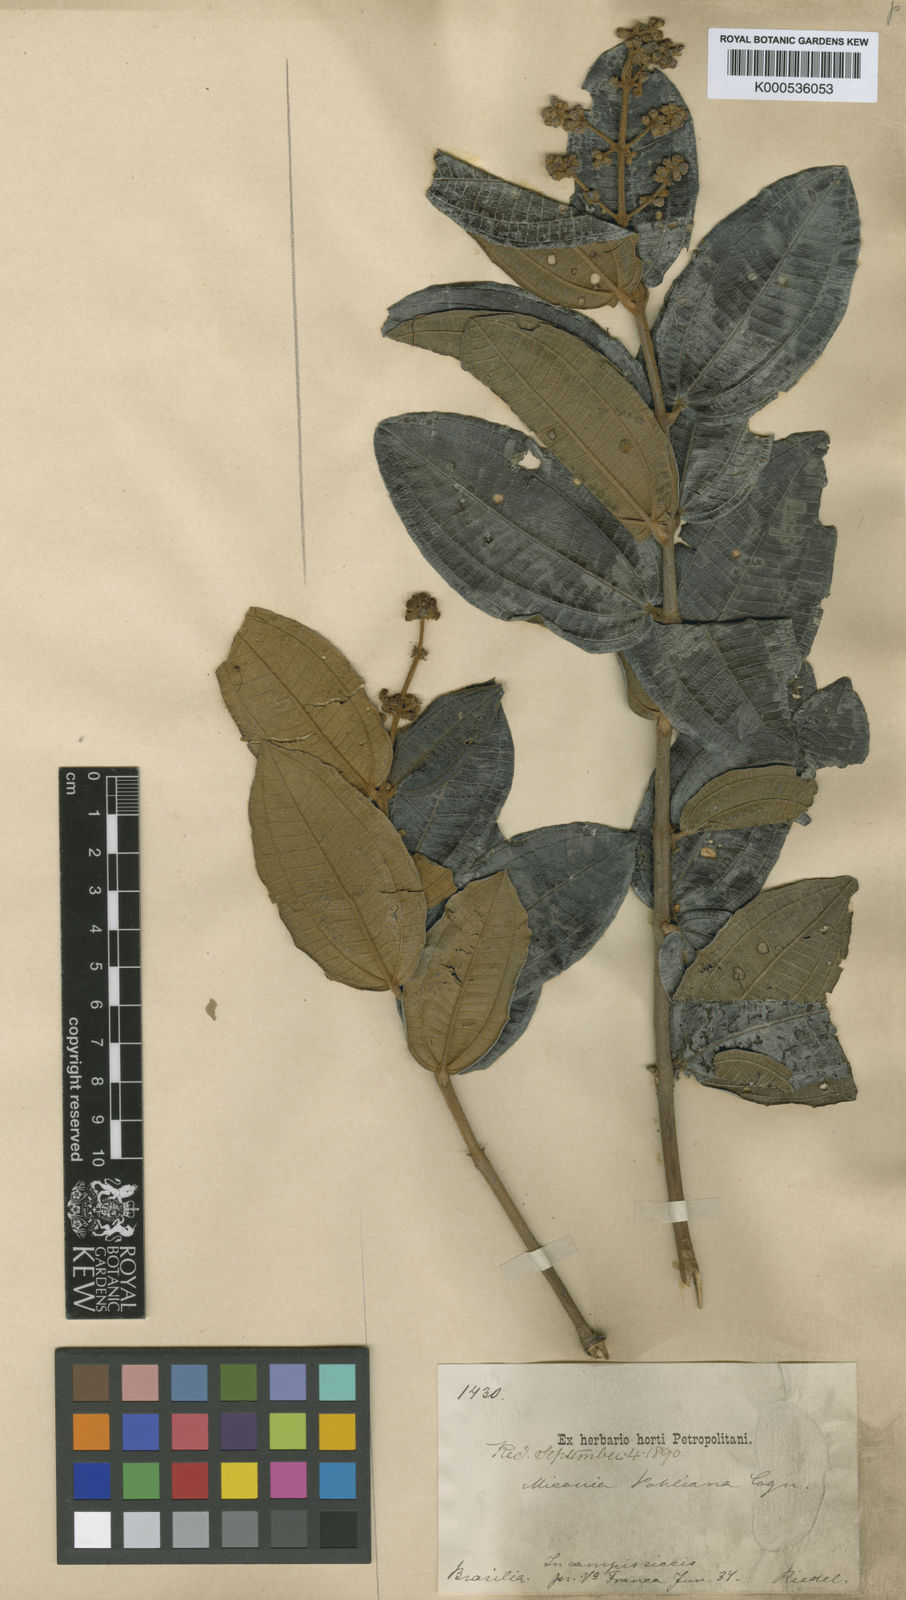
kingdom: Plantae
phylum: Tracheophyta
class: Magnoliopsida
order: Myrtales
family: Melastomataceae
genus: Miconia
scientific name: Miconia leucocarpa
